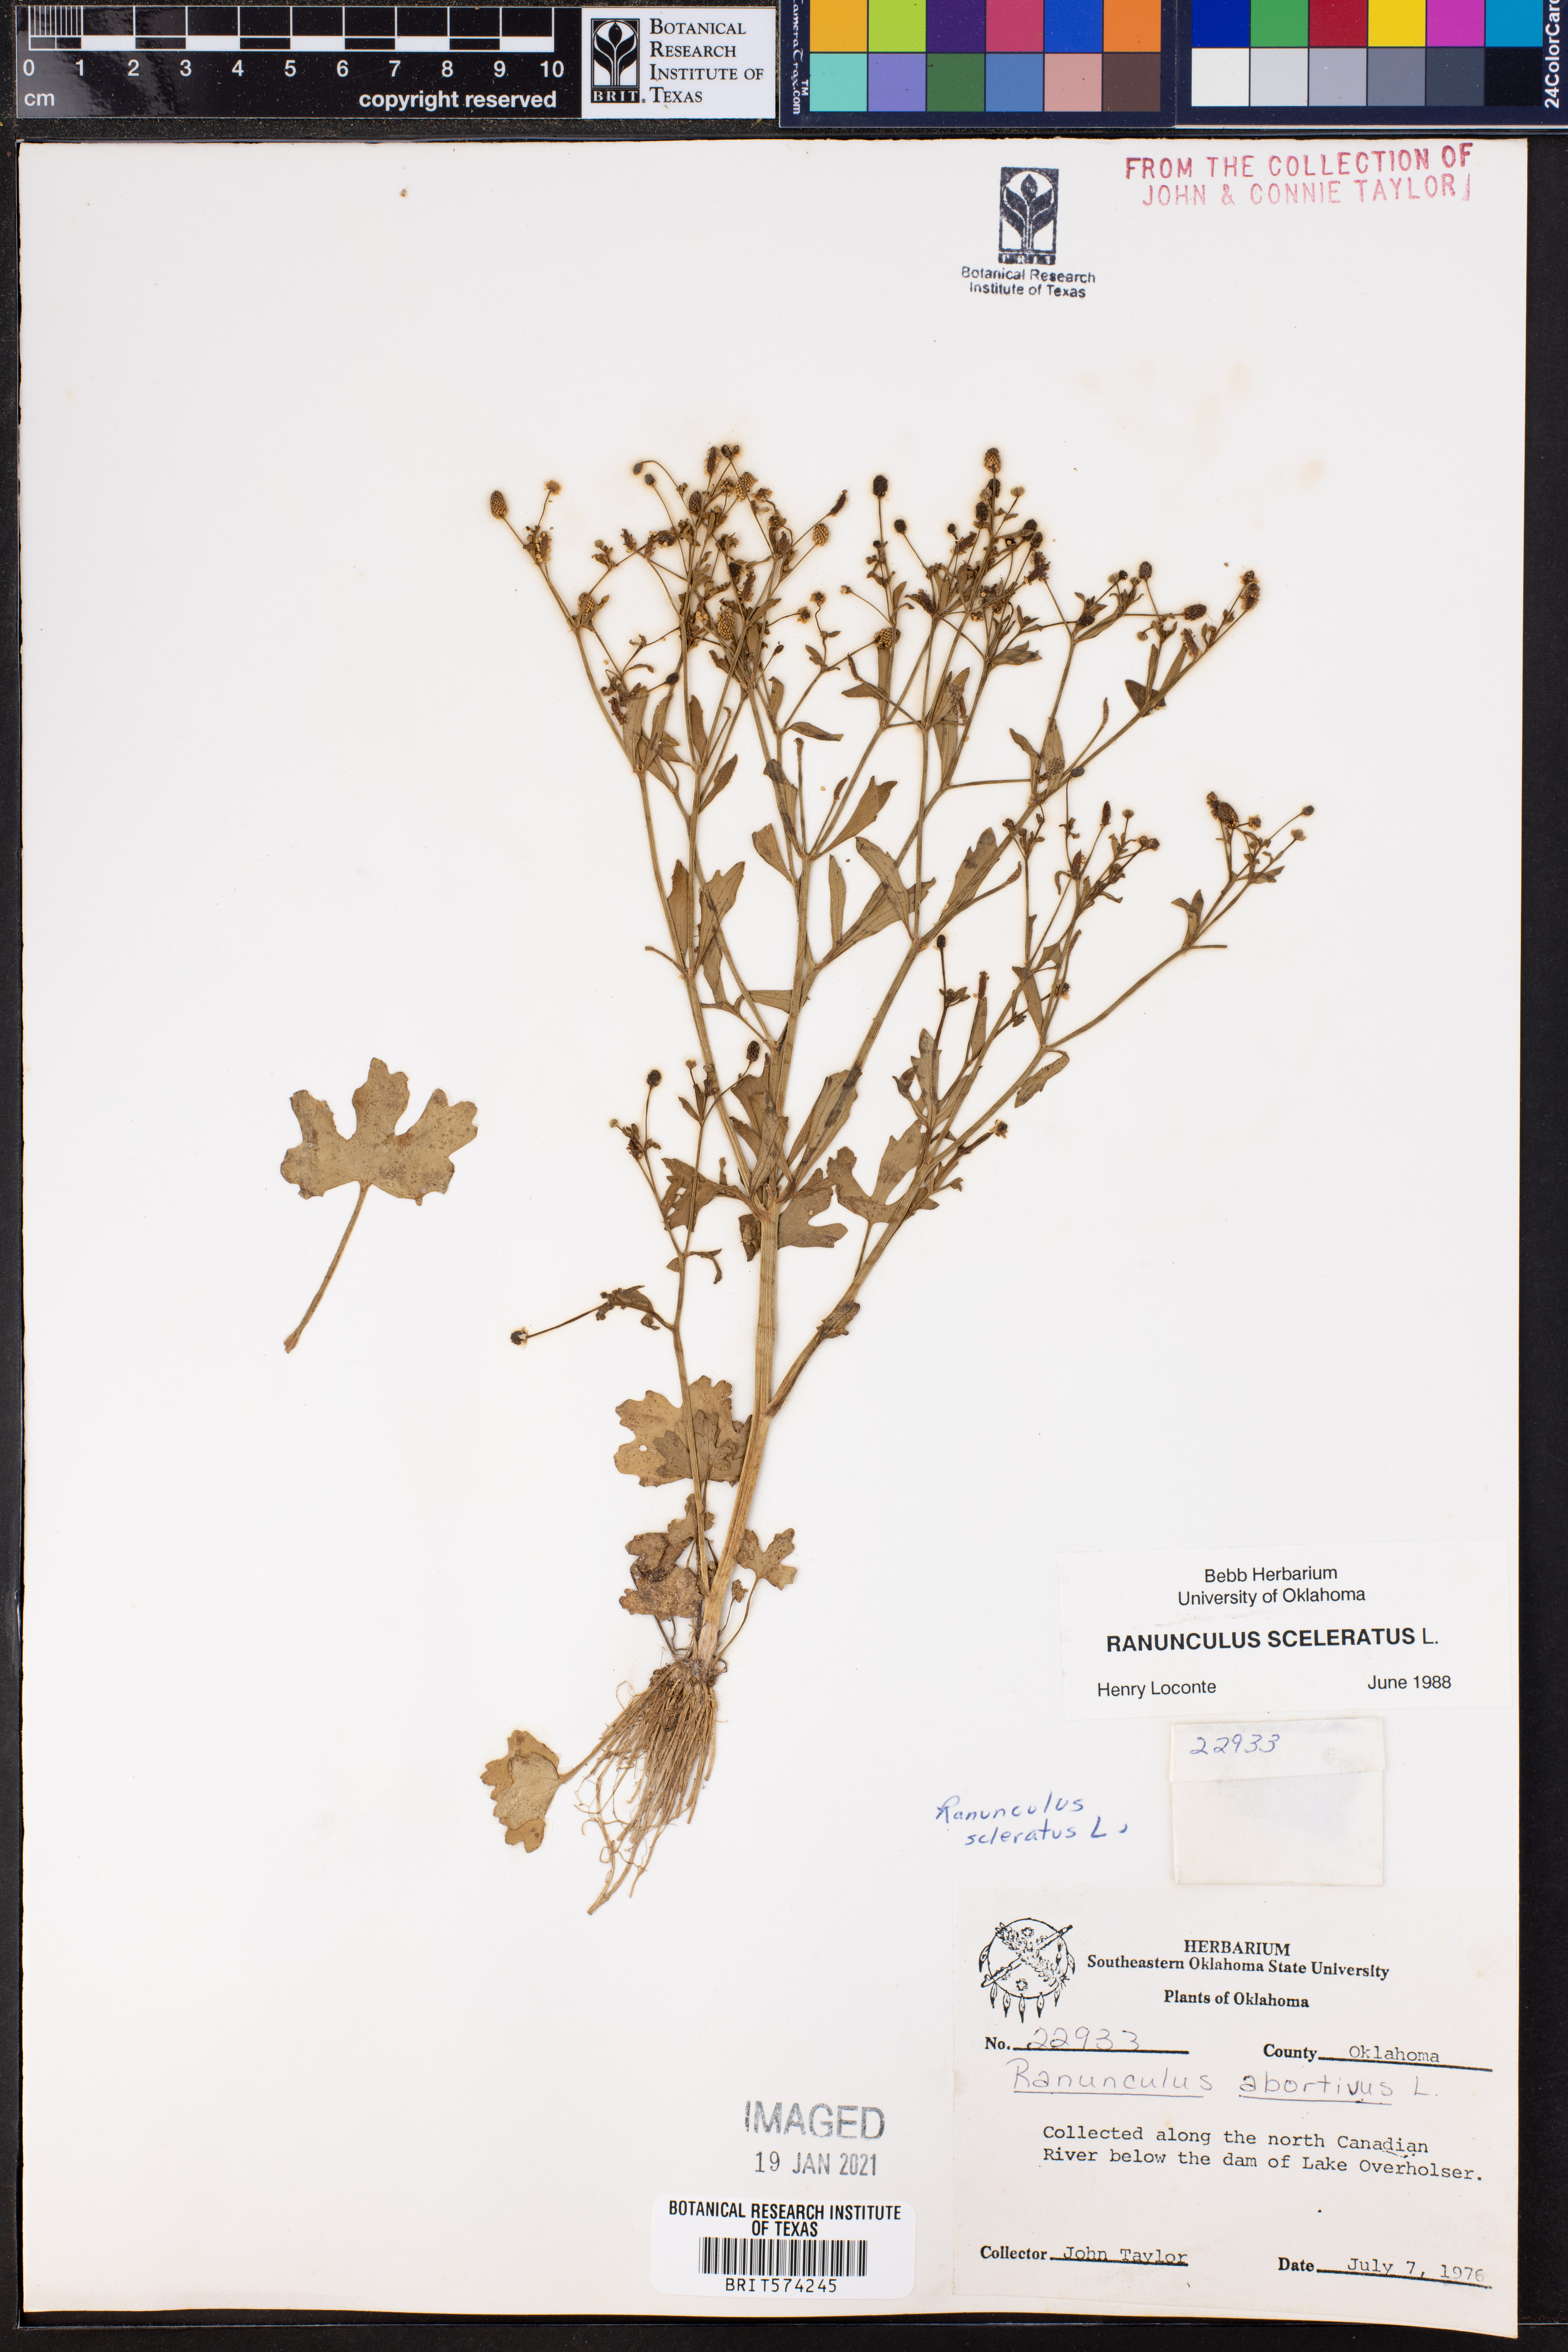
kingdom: Plantae
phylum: Tracheophyta
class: Magnoliopsida
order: Ranunculales
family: Ranunculaceae
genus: Ranunculus
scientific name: Ranunculus sceleratus
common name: Celery-leaved buttercup
